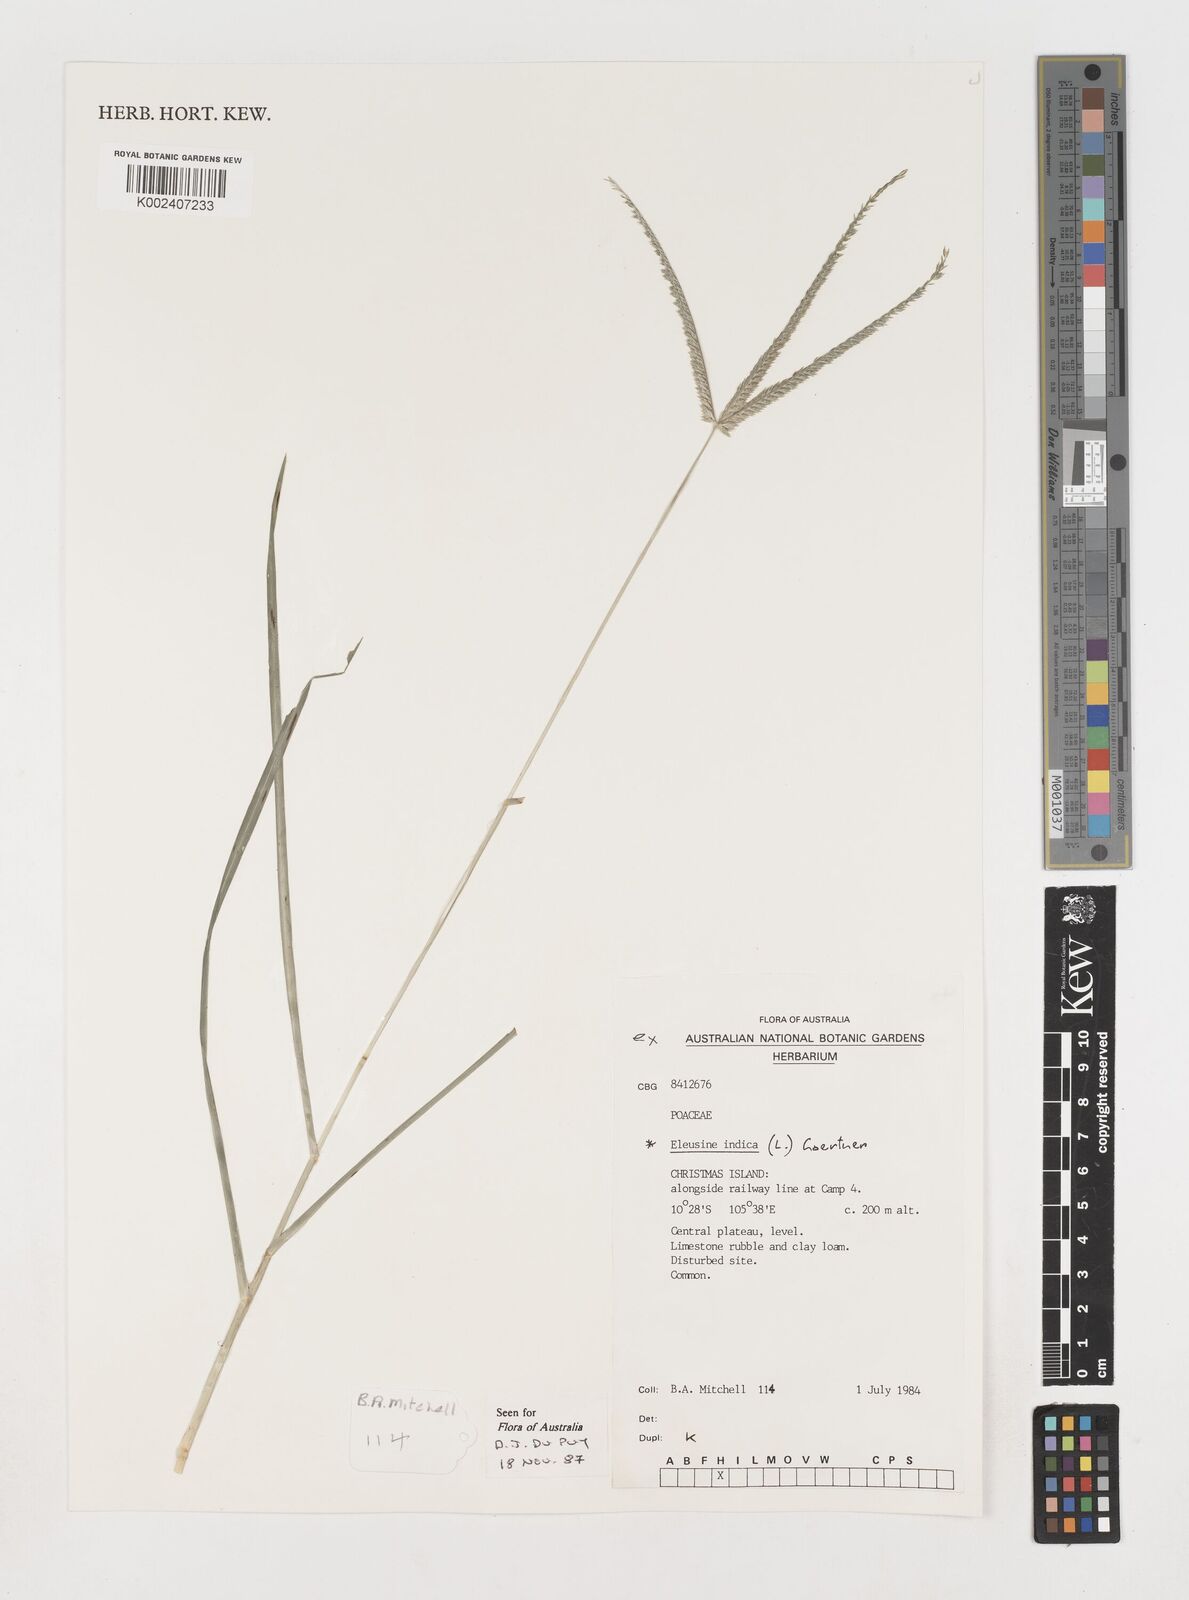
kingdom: Plantae
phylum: Tracheophyta
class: Liliopsida
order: Poales
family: Poaceae
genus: Eleusine
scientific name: Eleusine indica
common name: Yard-grass
